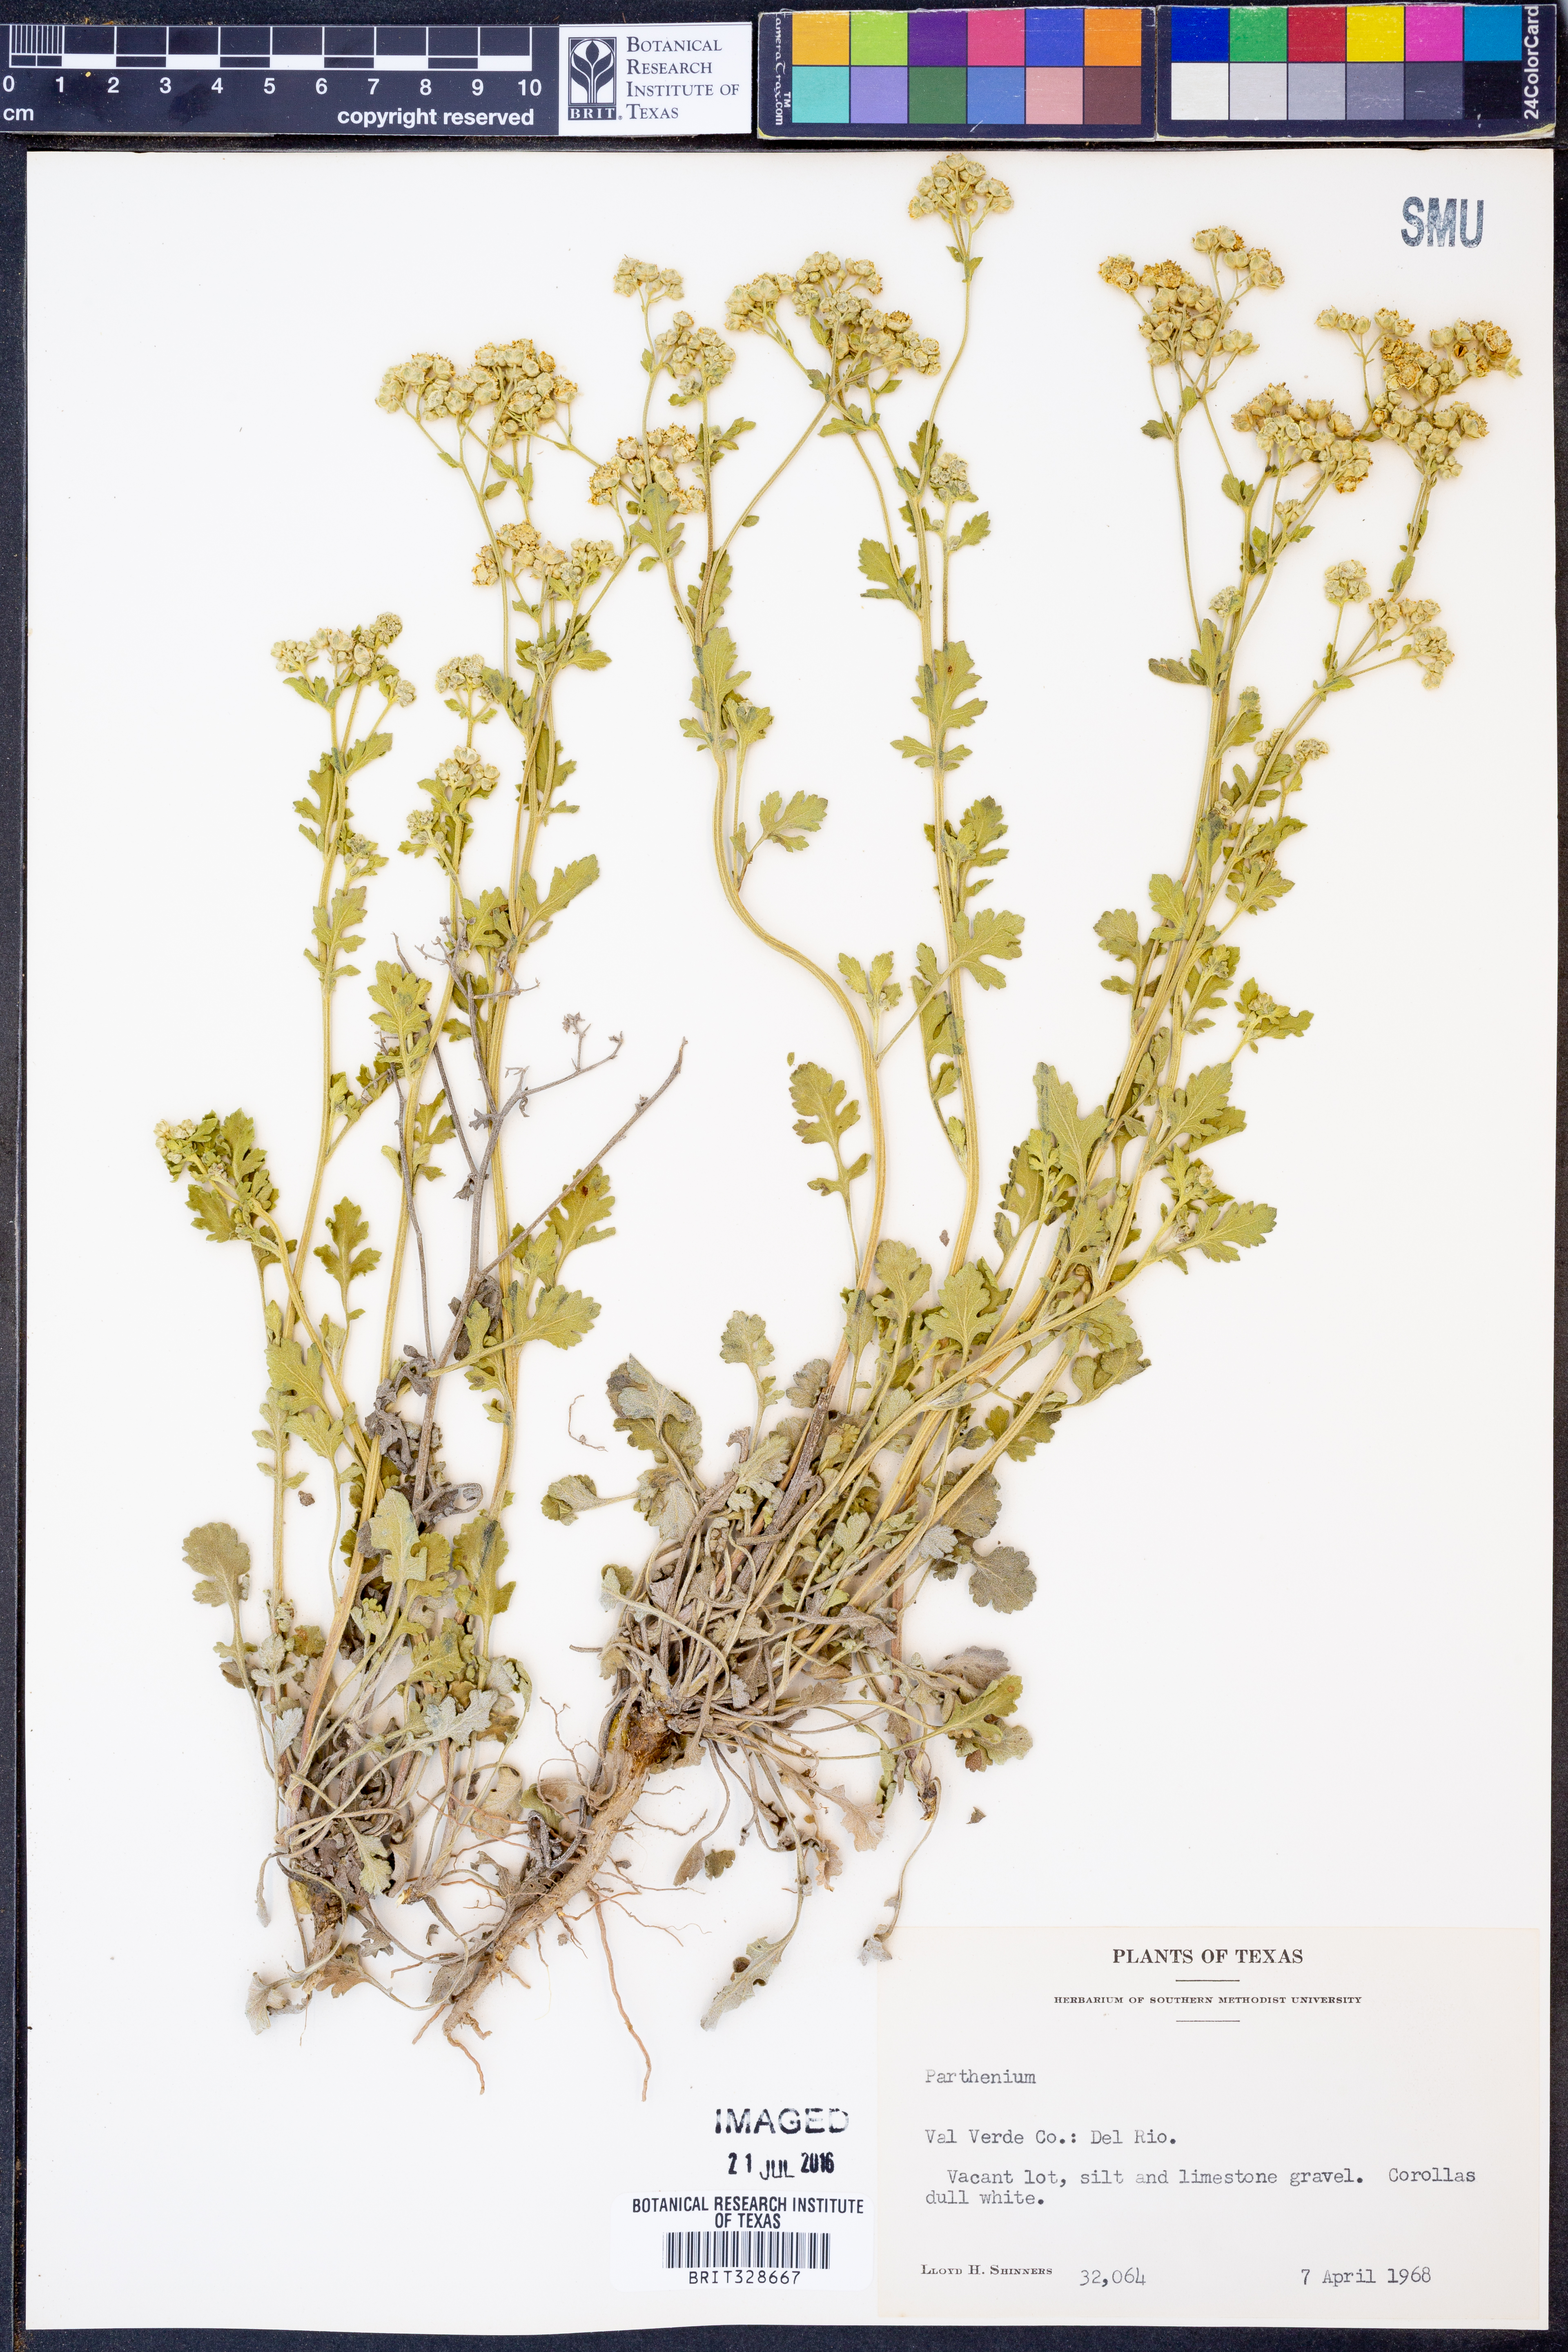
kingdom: Plantae
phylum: Tracheophyta
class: Magnoliopsida
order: Asterales
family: Asteraceae
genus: Parthenium
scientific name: Parthenium
